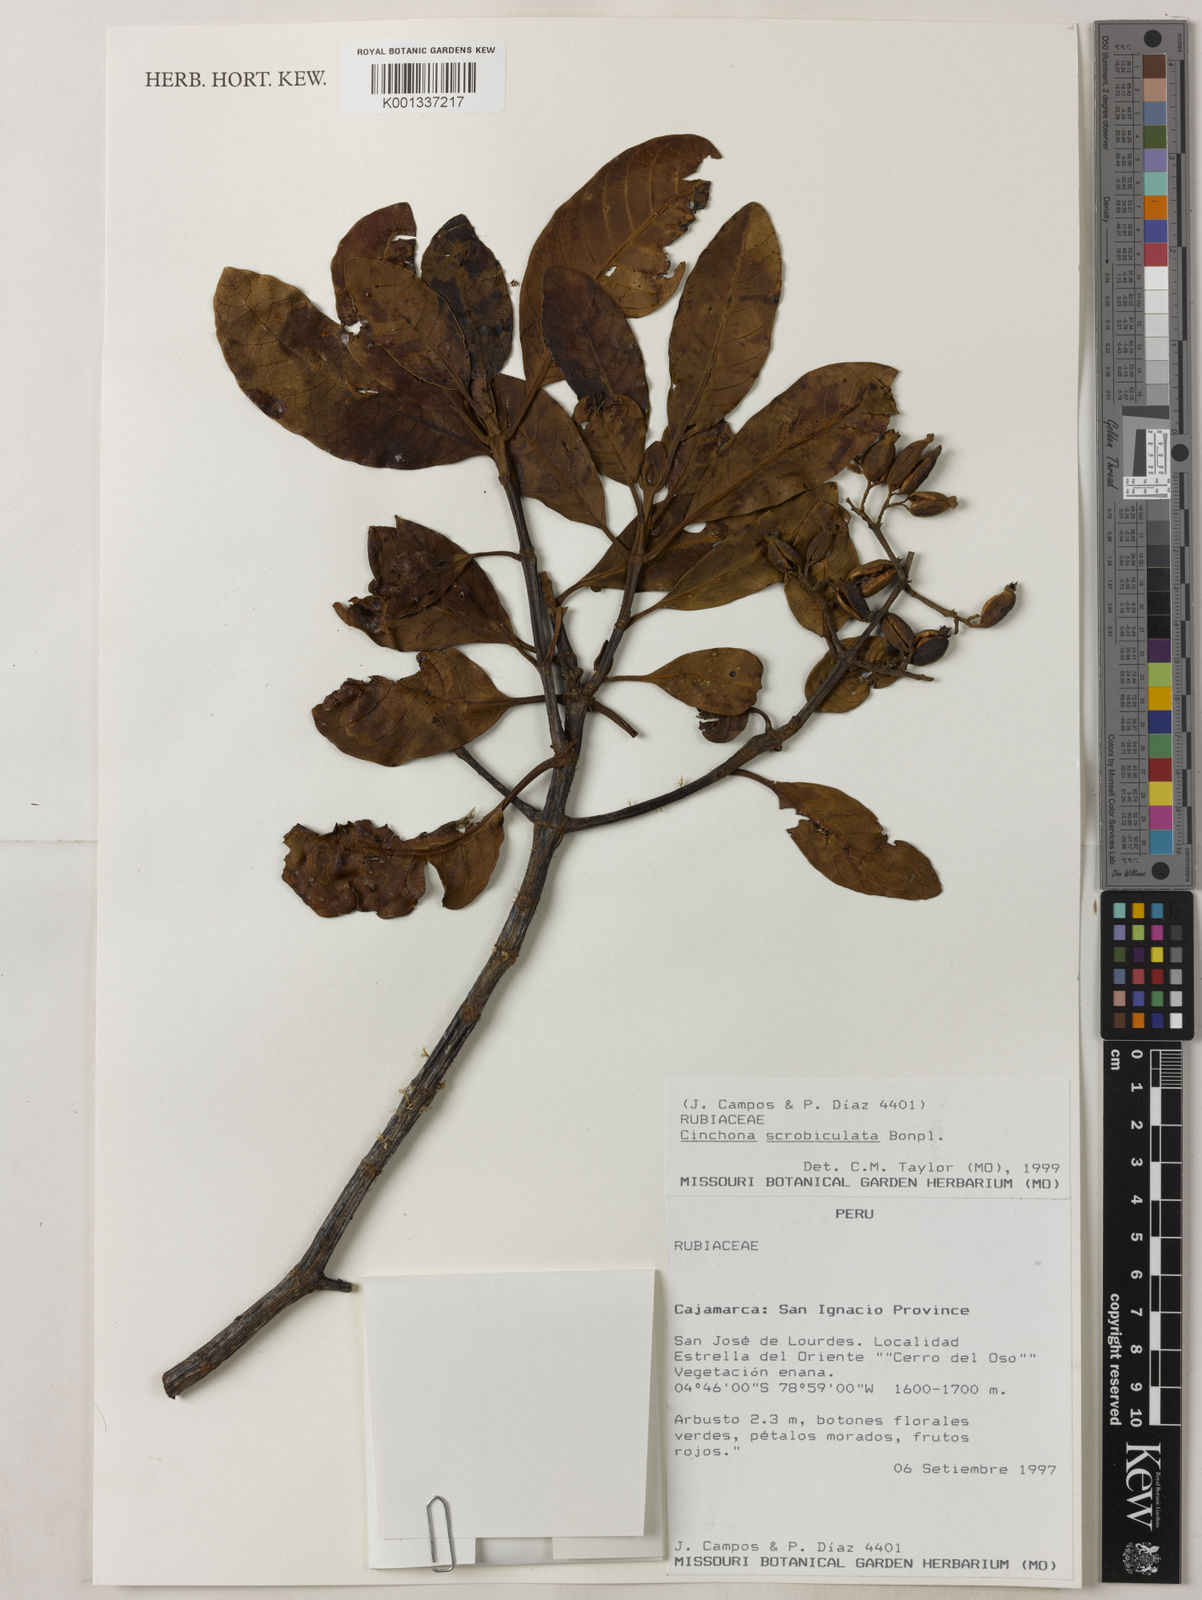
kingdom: Plantae
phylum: Tracheophyta
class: Magnoliopsida
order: Gentianales
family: Rubiaceae
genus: Cinchona
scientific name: Cinchona scrobiculata
